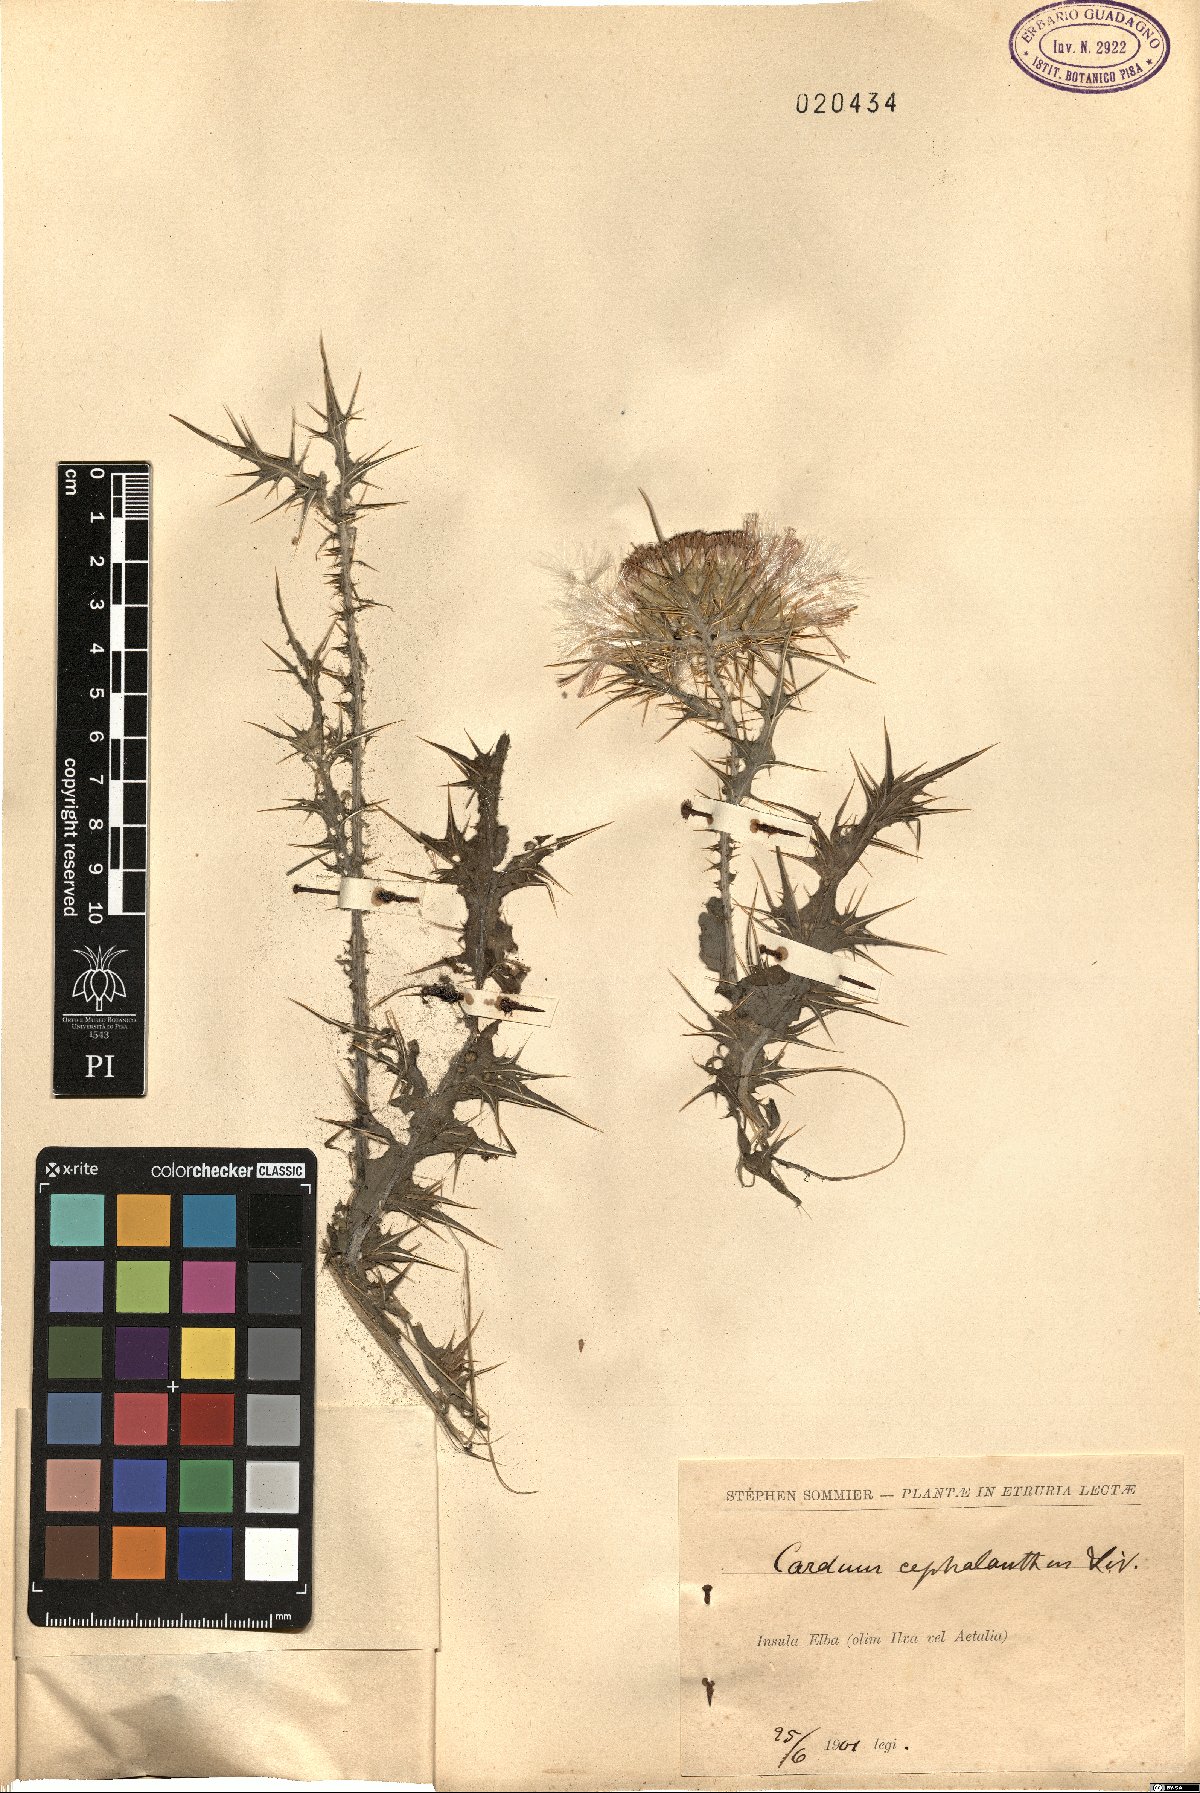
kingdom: Plantae
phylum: Tracheophyta
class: Magnoliopsida
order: Asterales
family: Asteraceae
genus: Carduus
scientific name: Carduus cephalanthus
